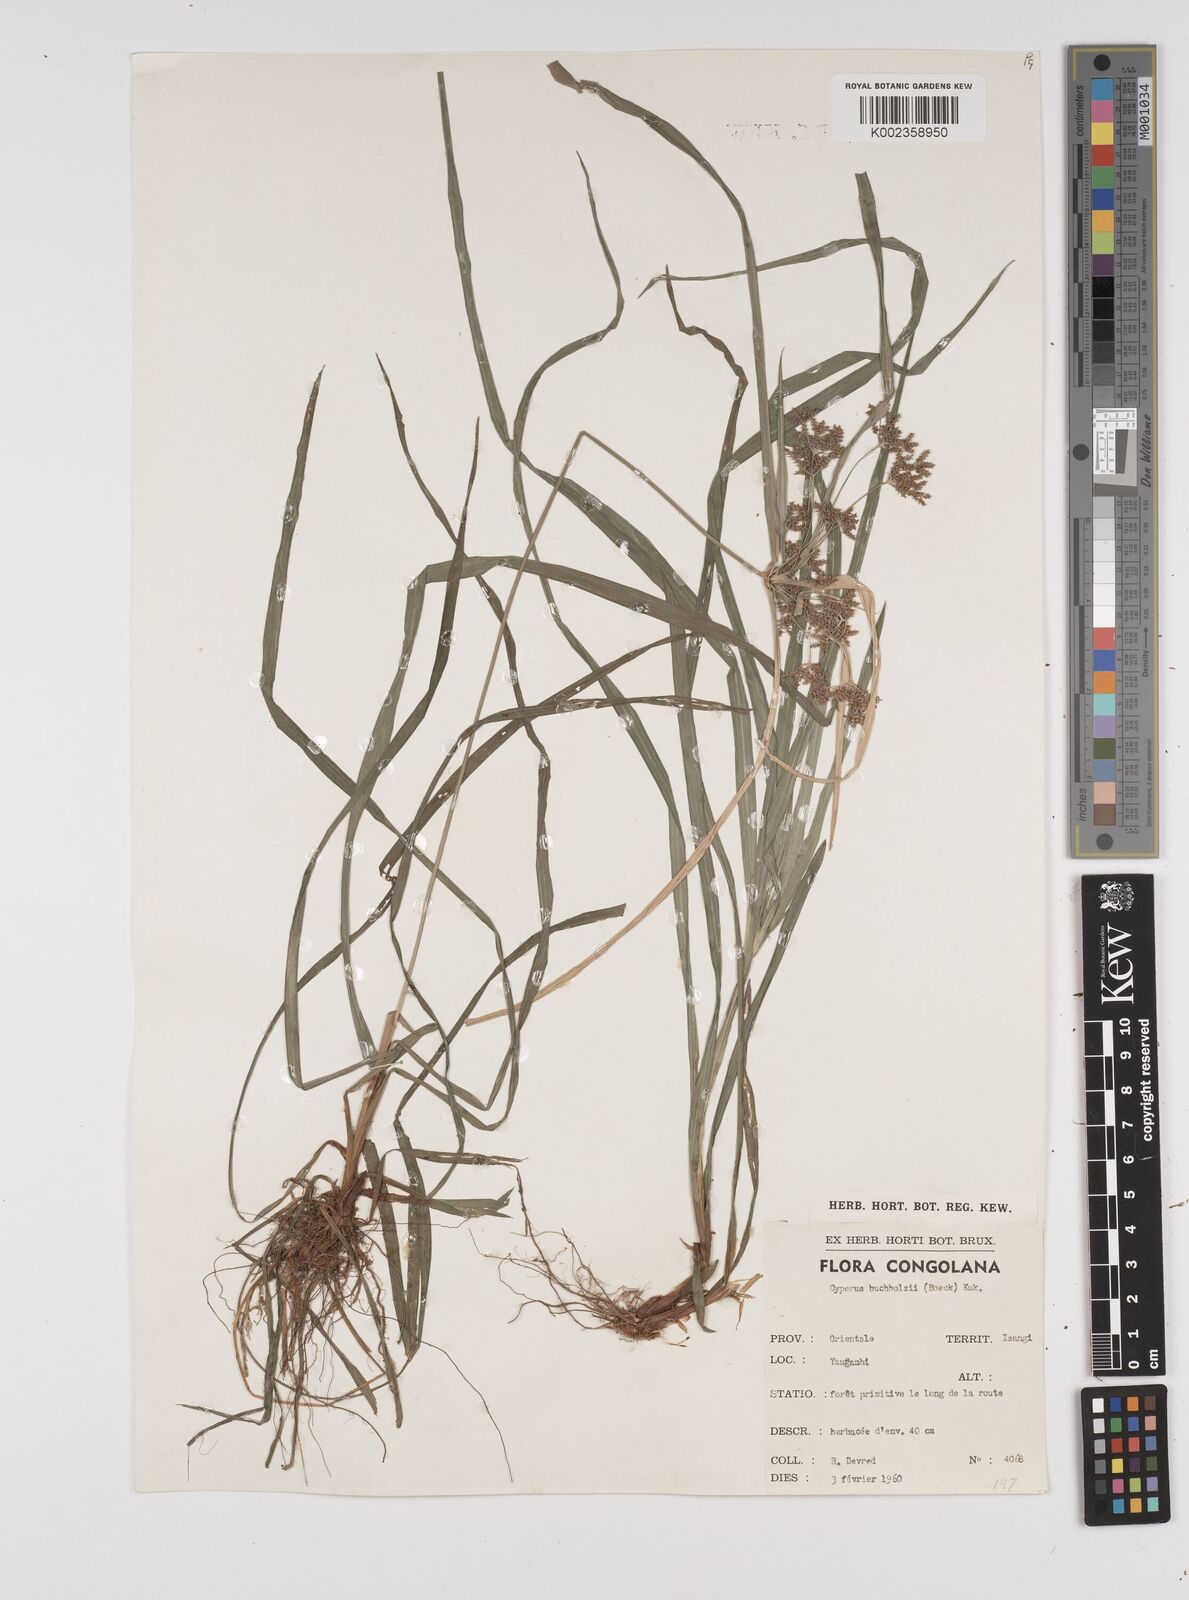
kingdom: Plantae
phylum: Tracheophyta
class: Liliopsida
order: Poales
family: Cyperaceae
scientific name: Cyperaceae
